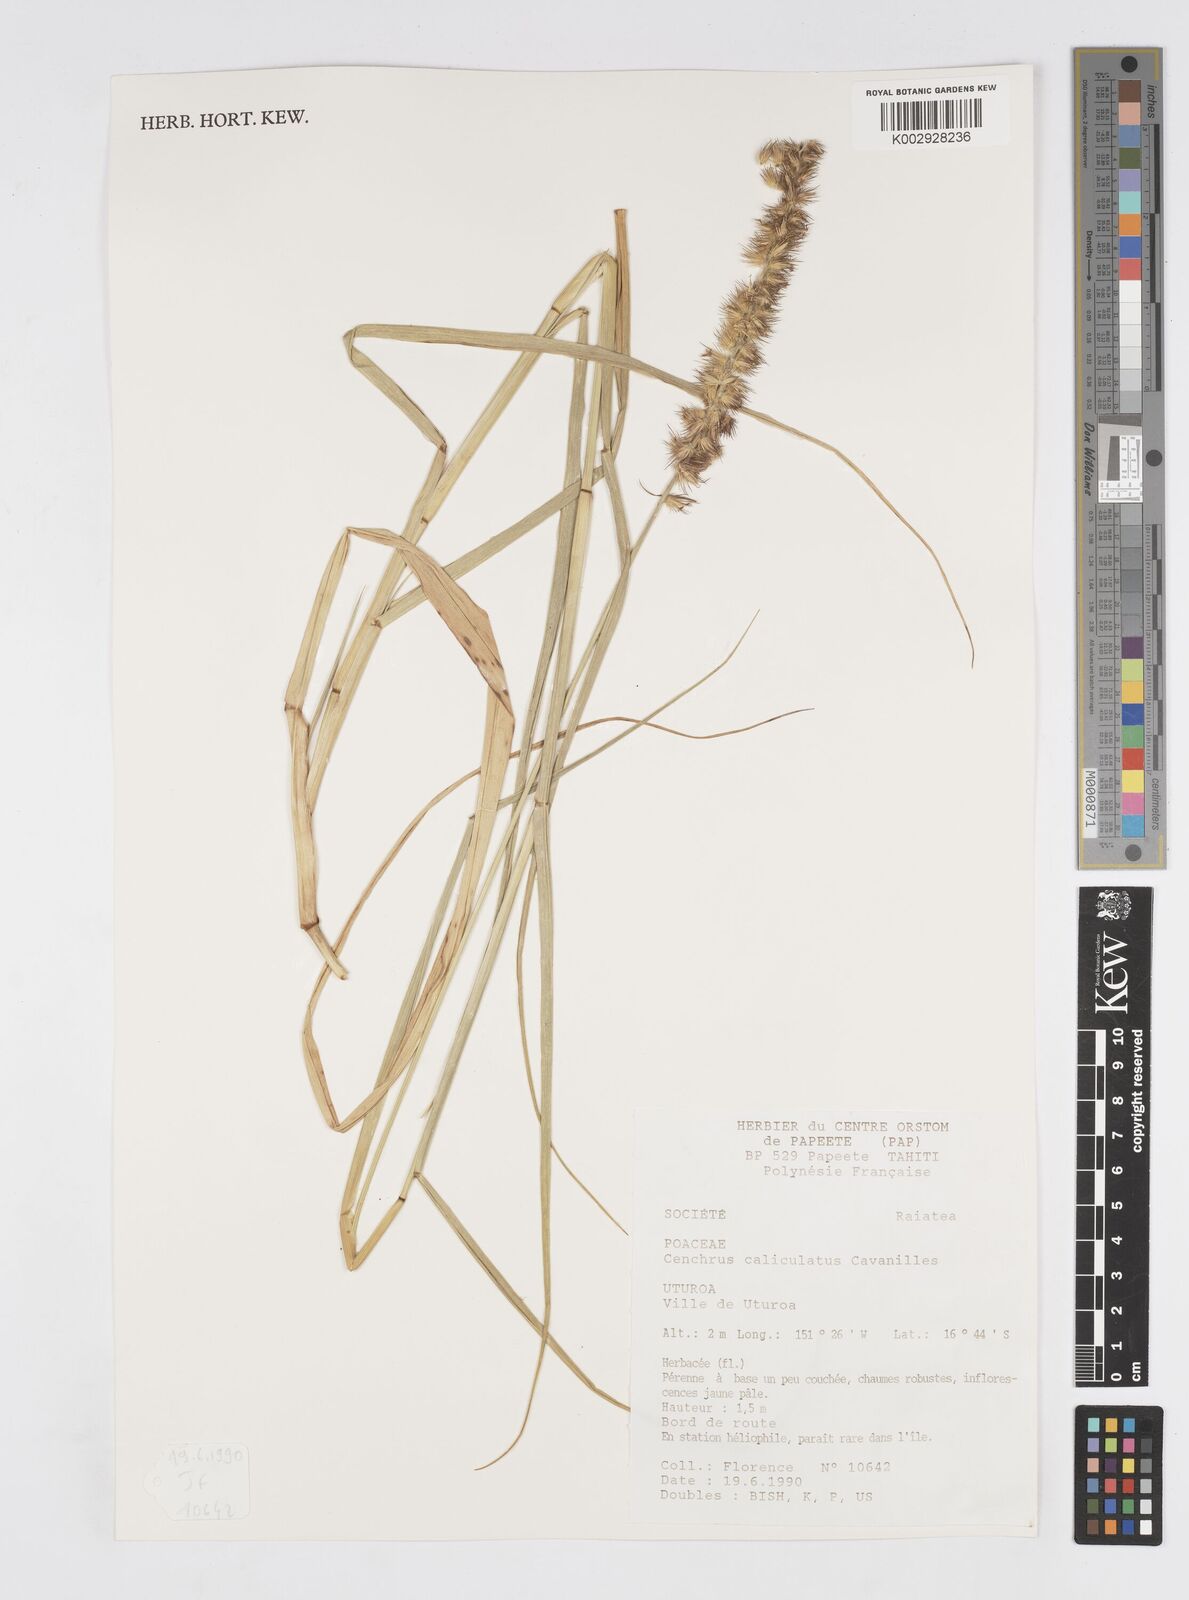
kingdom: Plantae
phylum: Tracheophyta
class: Liliopsida
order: Poales
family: Poaceae
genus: Cenchrus
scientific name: Cenchrus caliculatus
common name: Large bur grass
